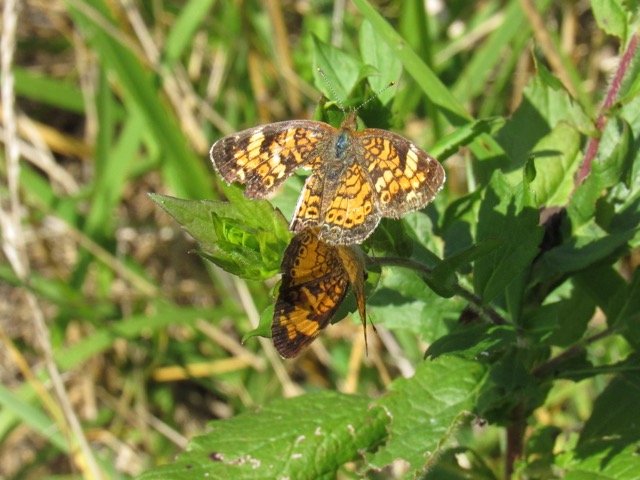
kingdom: Animalia
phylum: Arthropoda
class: Insecta
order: Lepidoptera
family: Nymphalidae
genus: Phyciodes
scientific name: Phyciodes tharos
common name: Pearl Crescent
